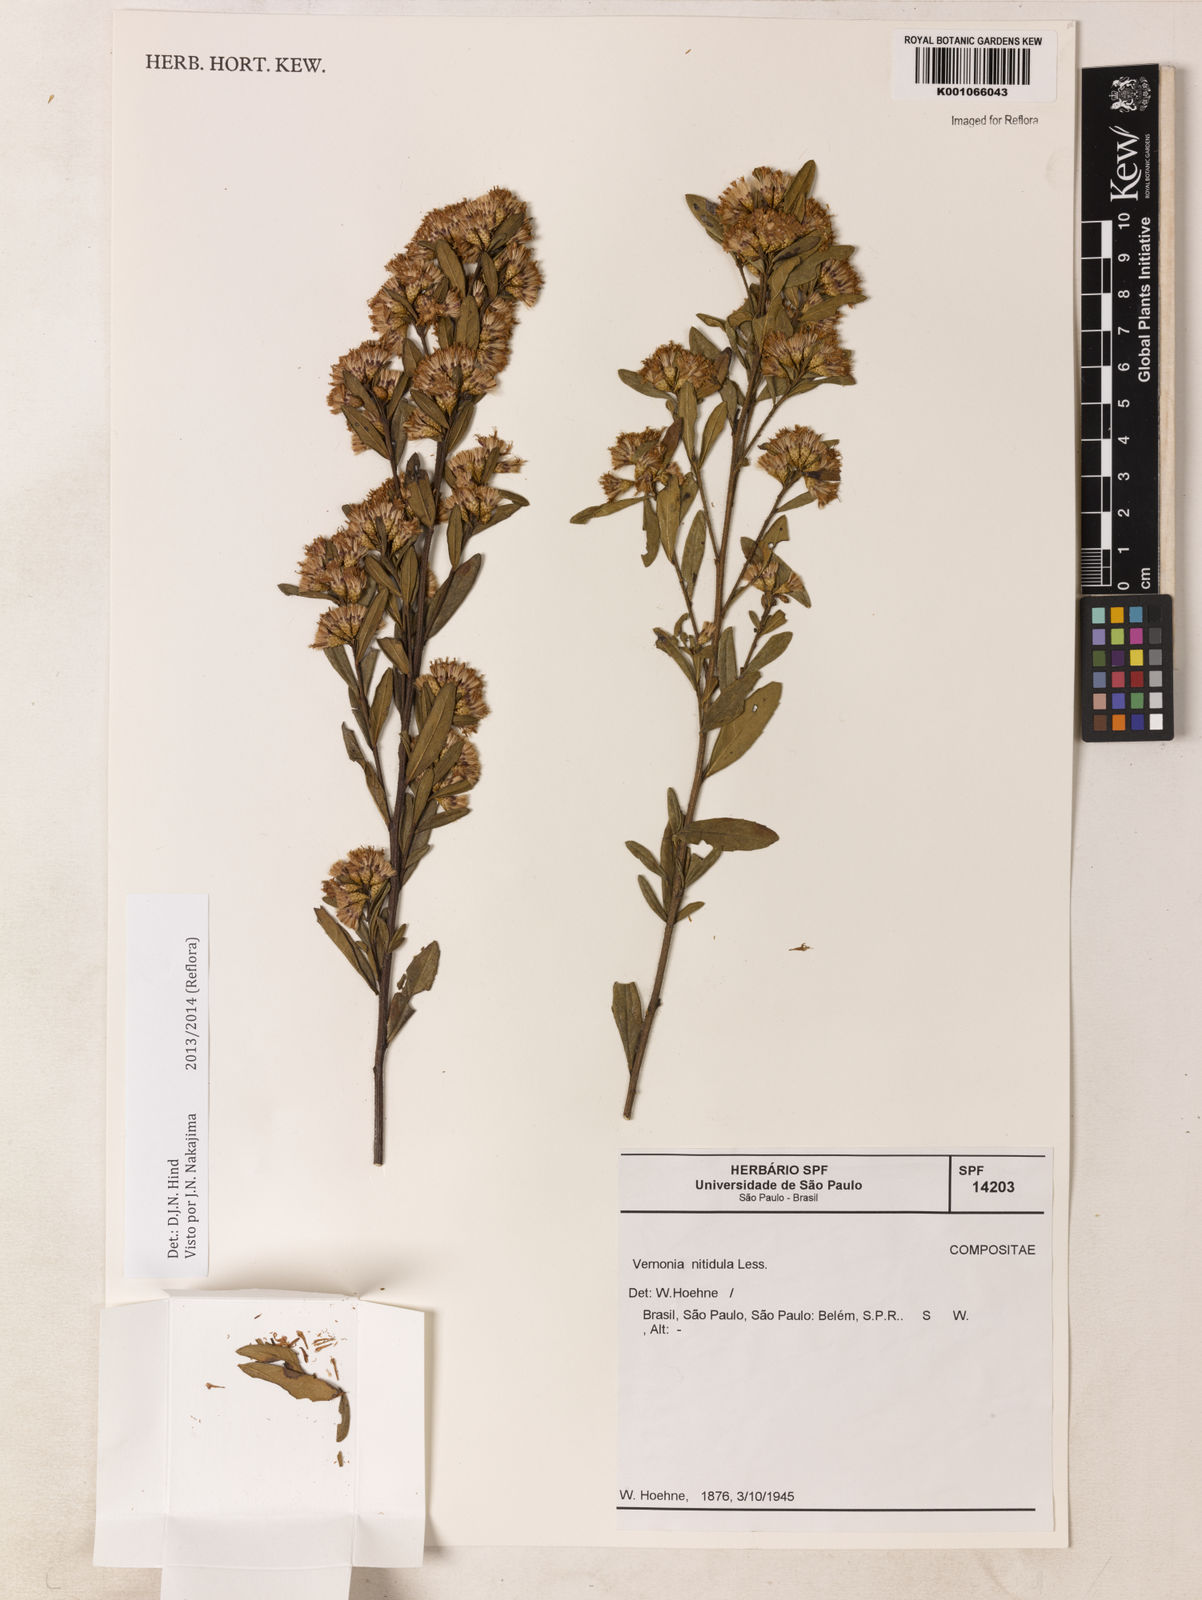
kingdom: Plantae
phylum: Tracheophyta
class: Magnoliopsida
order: Asterales
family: Asteraceae
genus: Vernonanthura
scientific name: Vernonanthura montevidensis
